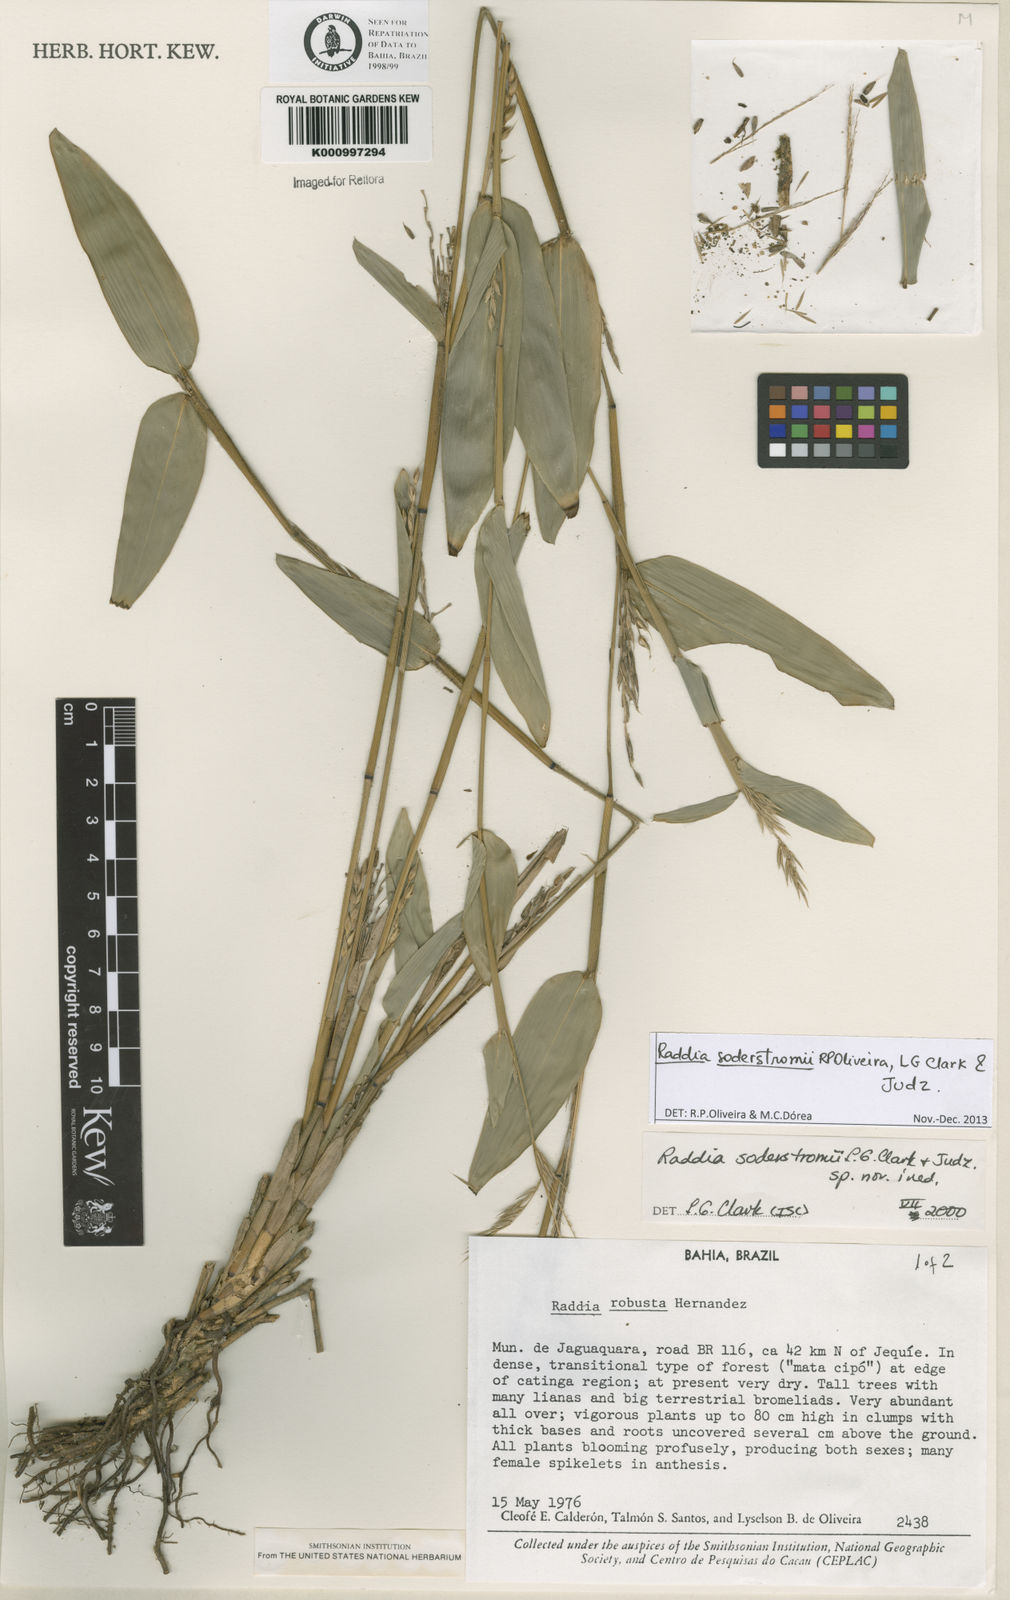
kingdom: Plantae
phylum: Tracheophyta
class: Liliopsida
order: Poales
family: Poaceae
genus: Raddia
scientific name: Raddia soderstromii
